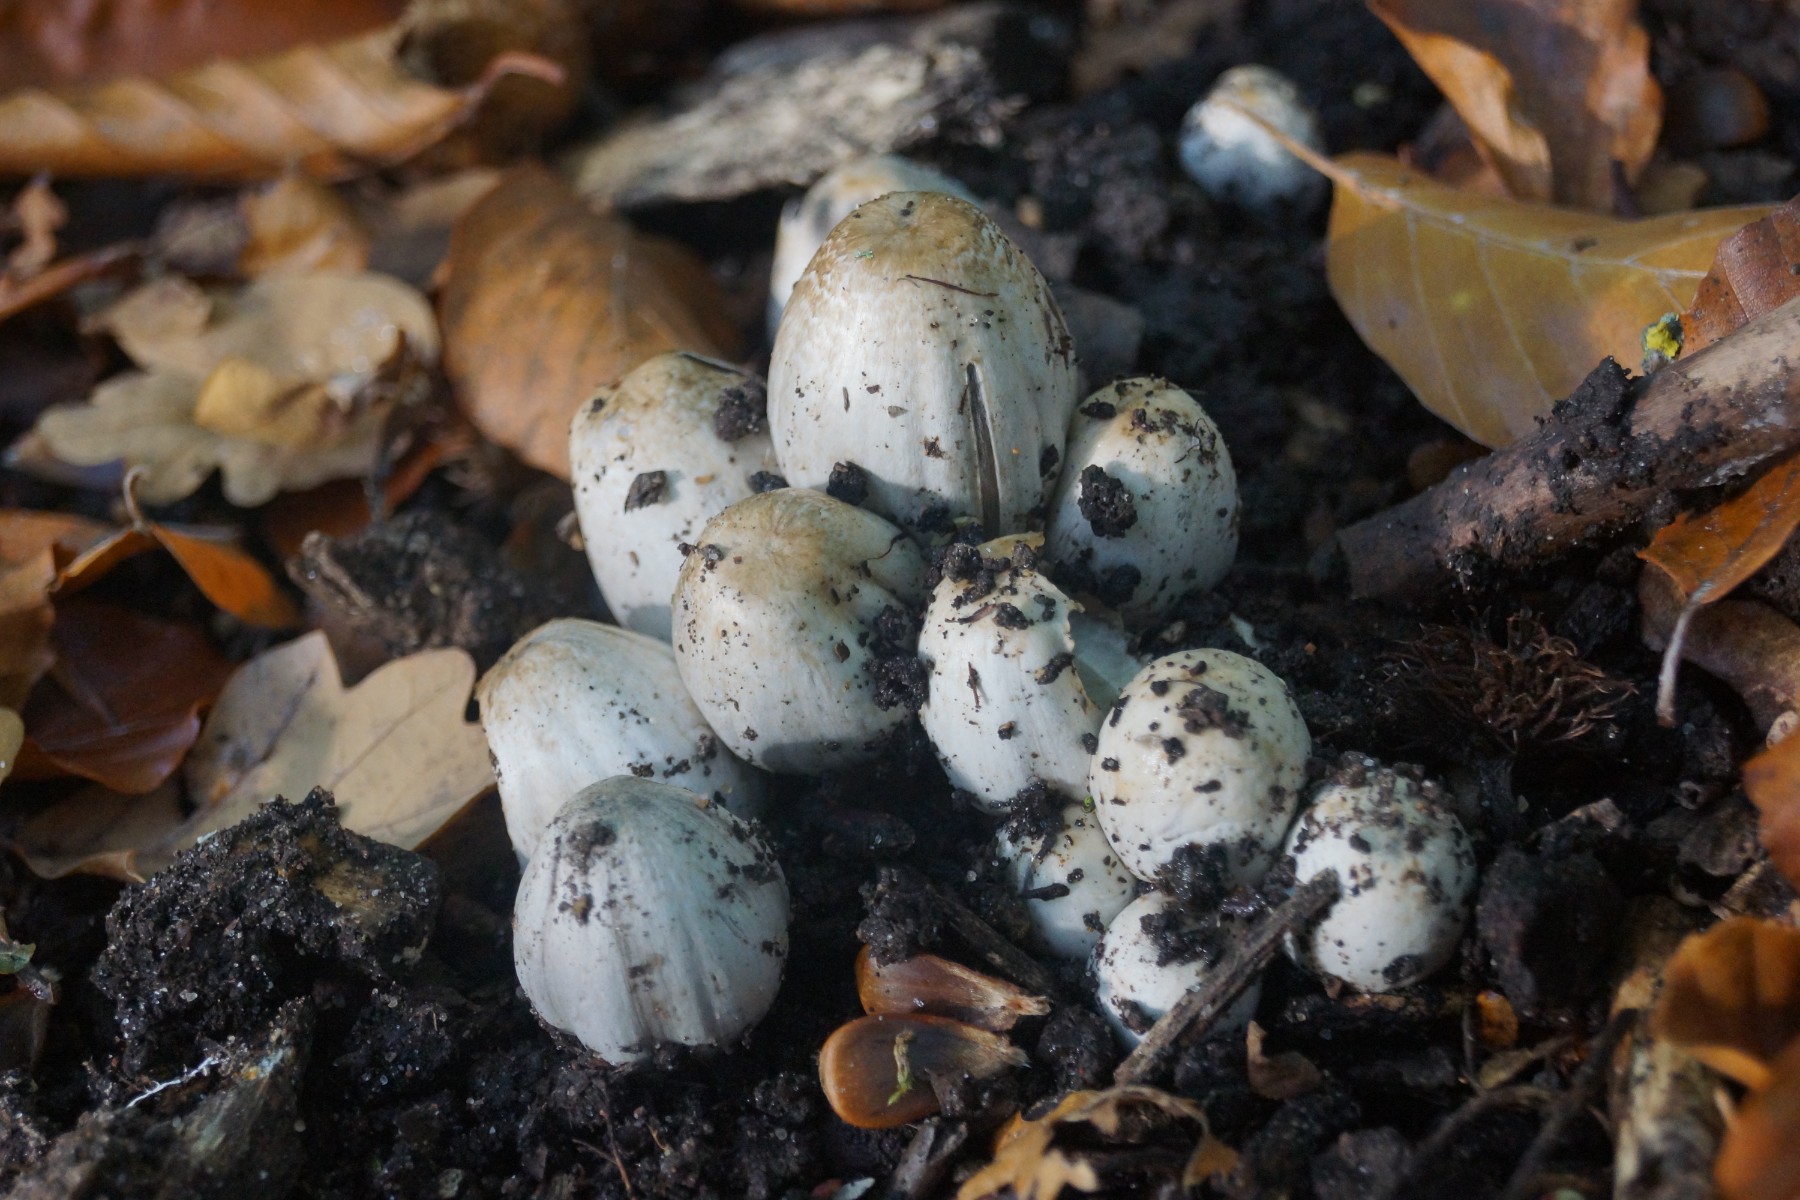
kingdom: Fungi
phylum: Basidiomycota
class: Agaricomycetes
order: Agaricales
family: Psathyrellaceae
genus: Coprinopsis
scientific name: Coprinopsis romagnesiana
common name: brunskællet blækhat
